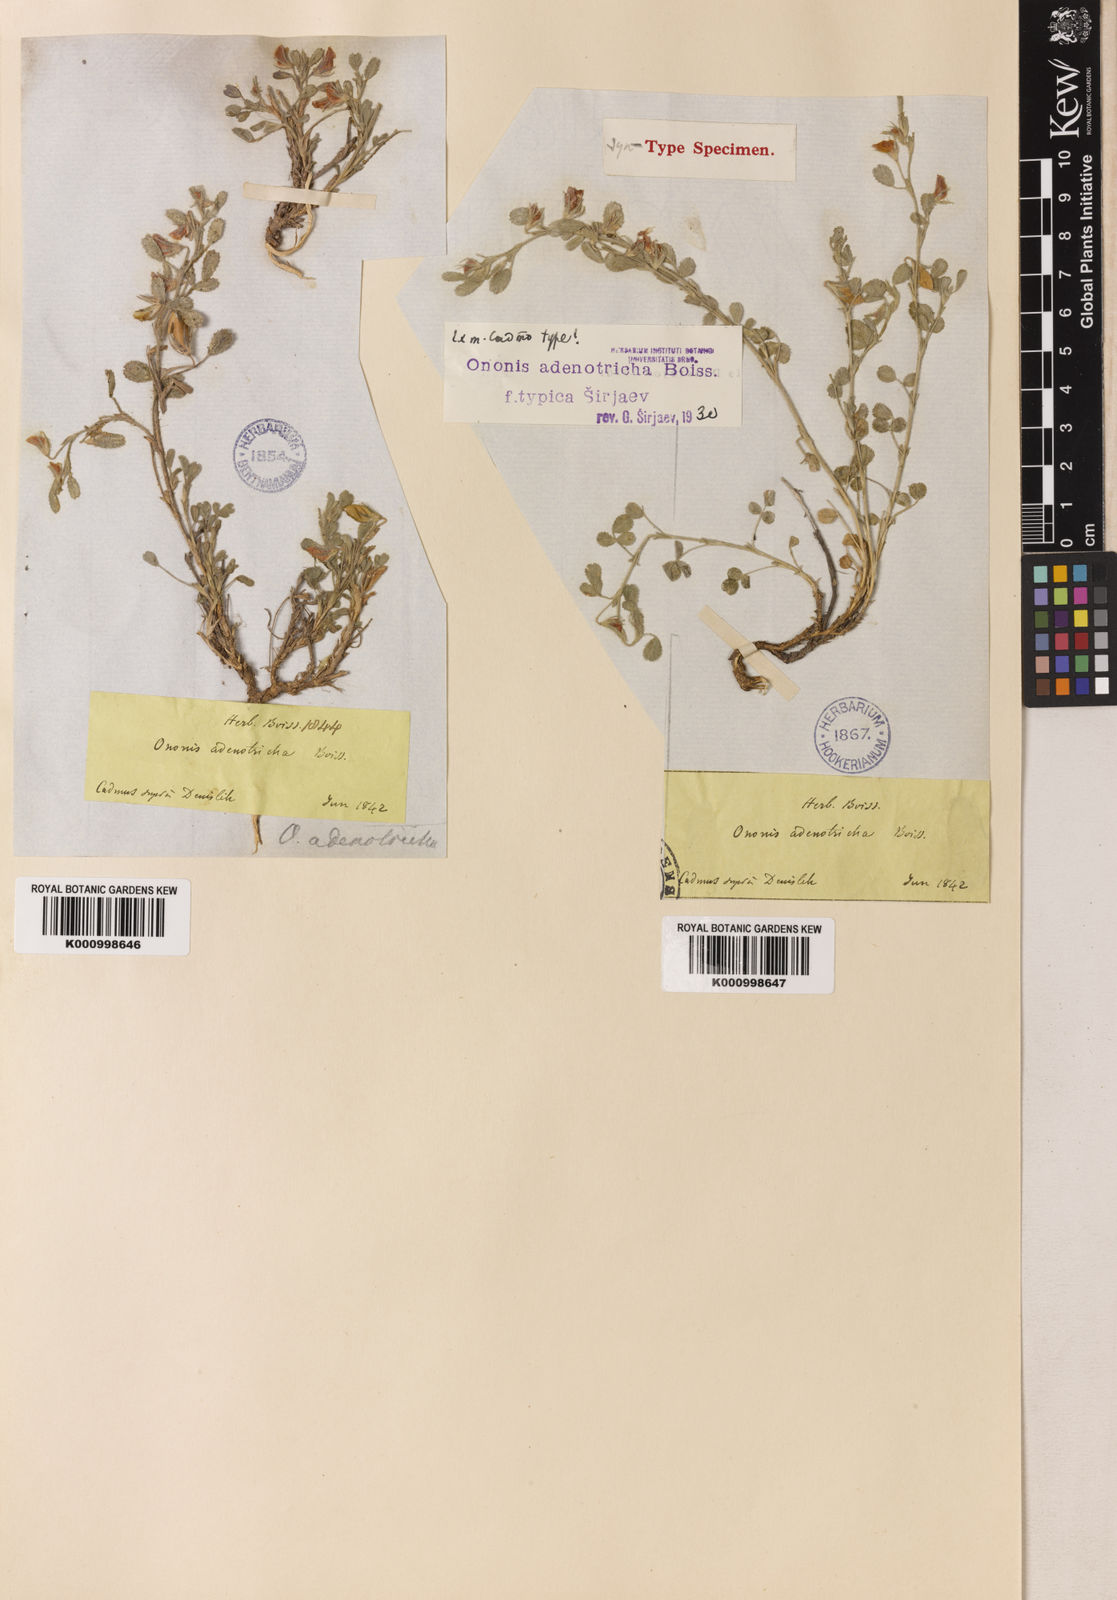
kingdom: Plantae
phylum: Tracheophyta
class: Magnoliopsida
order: Fabales
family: Fabaceae
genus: Ononis
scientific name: Ononis adenotricha
